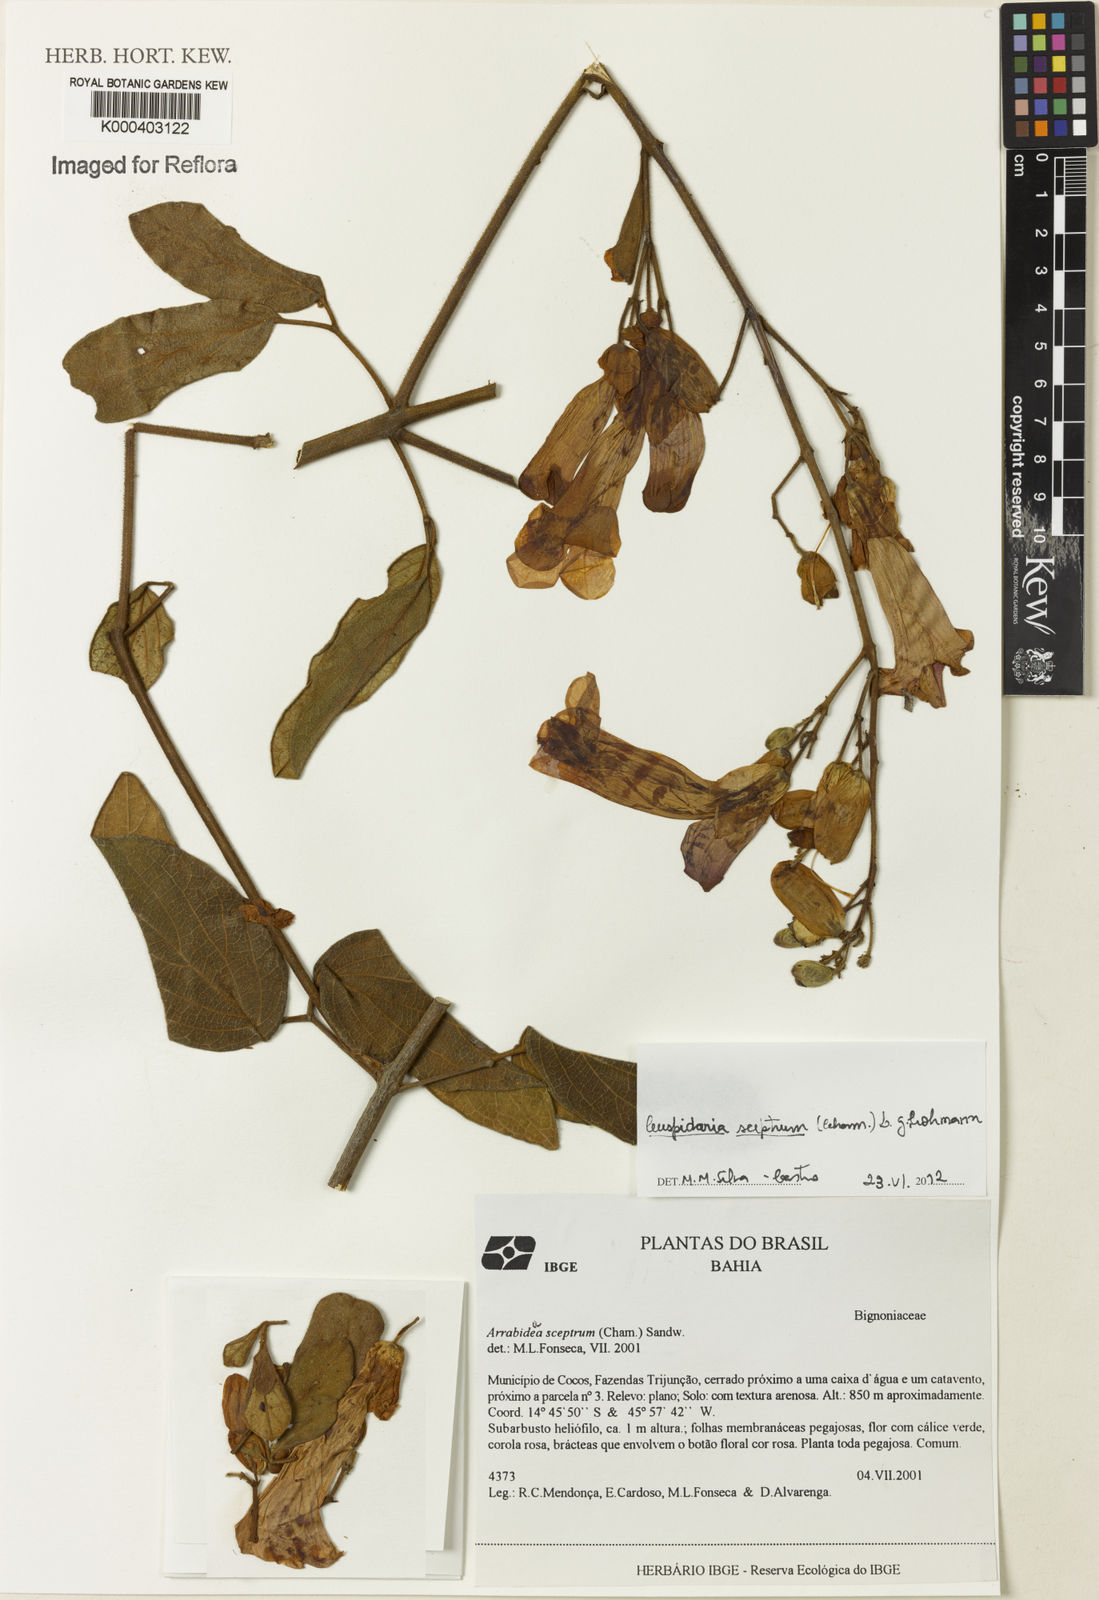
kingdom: Plantae
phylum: Tracheophyta
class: Magnoliopsida
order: Lamiales
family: Bignoniaceae
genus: Cuspidaria
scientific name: Cuspidaria sceptrum
